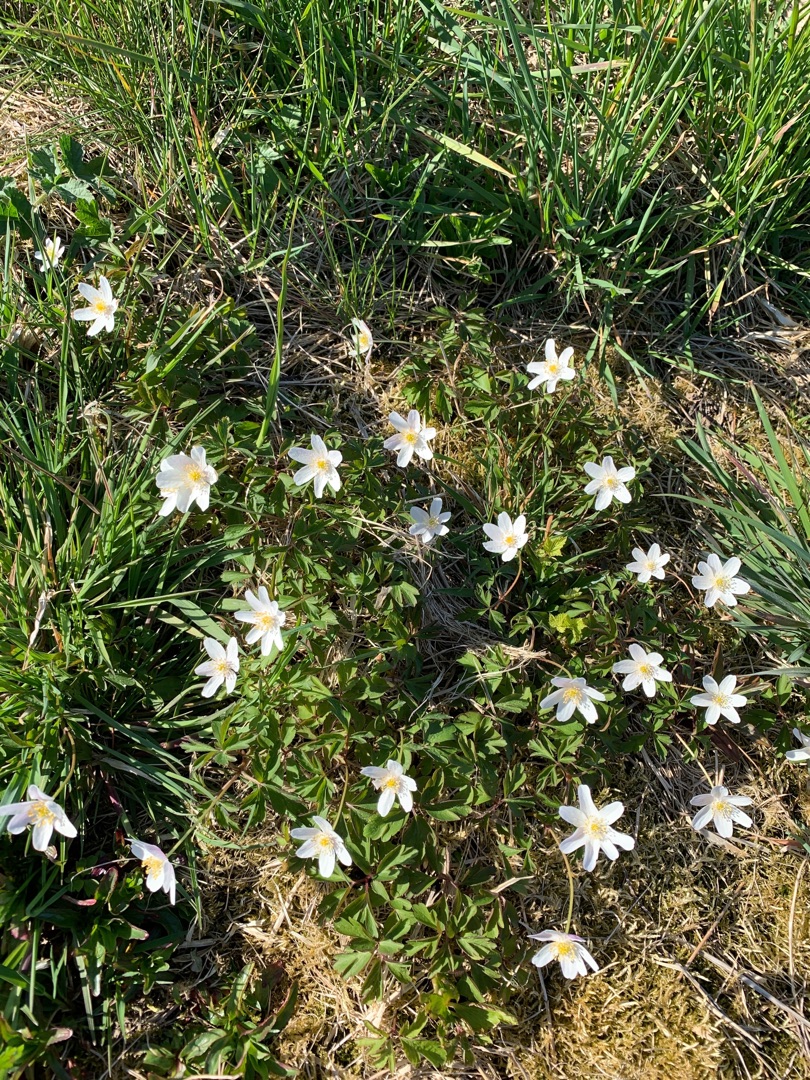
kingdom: Plantae
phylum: Tracheophyta
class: Magnoliopsida
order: Ranunculales
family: Ranunculaceae
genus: Anemone
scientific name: Anemone nemorosa
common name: Hvid anemone
